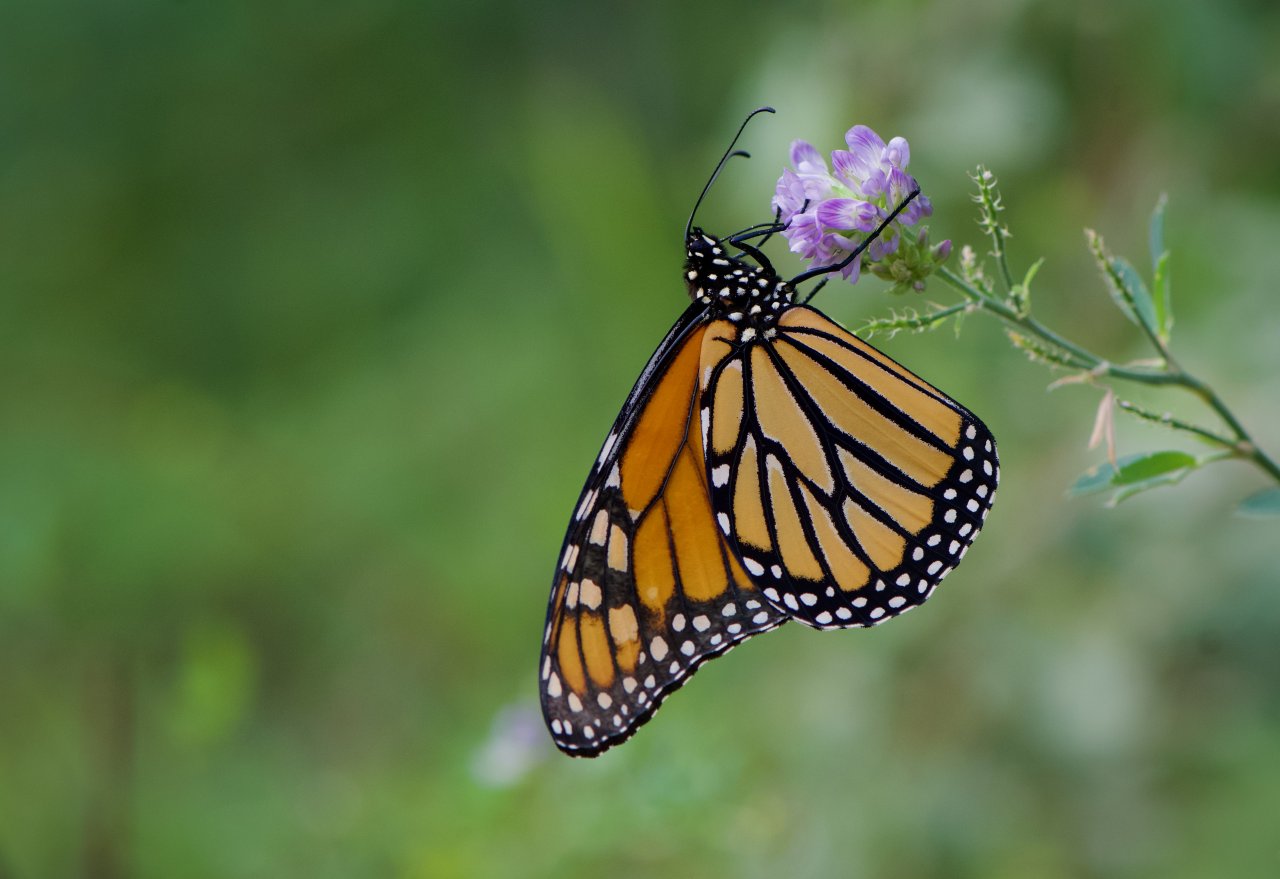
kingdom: Animalia
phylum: Arthropoda
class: Insecta
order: Lepidoptera
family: Nymphalidae
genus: Danaus
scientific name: Danaus plexippus
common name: Monarch
